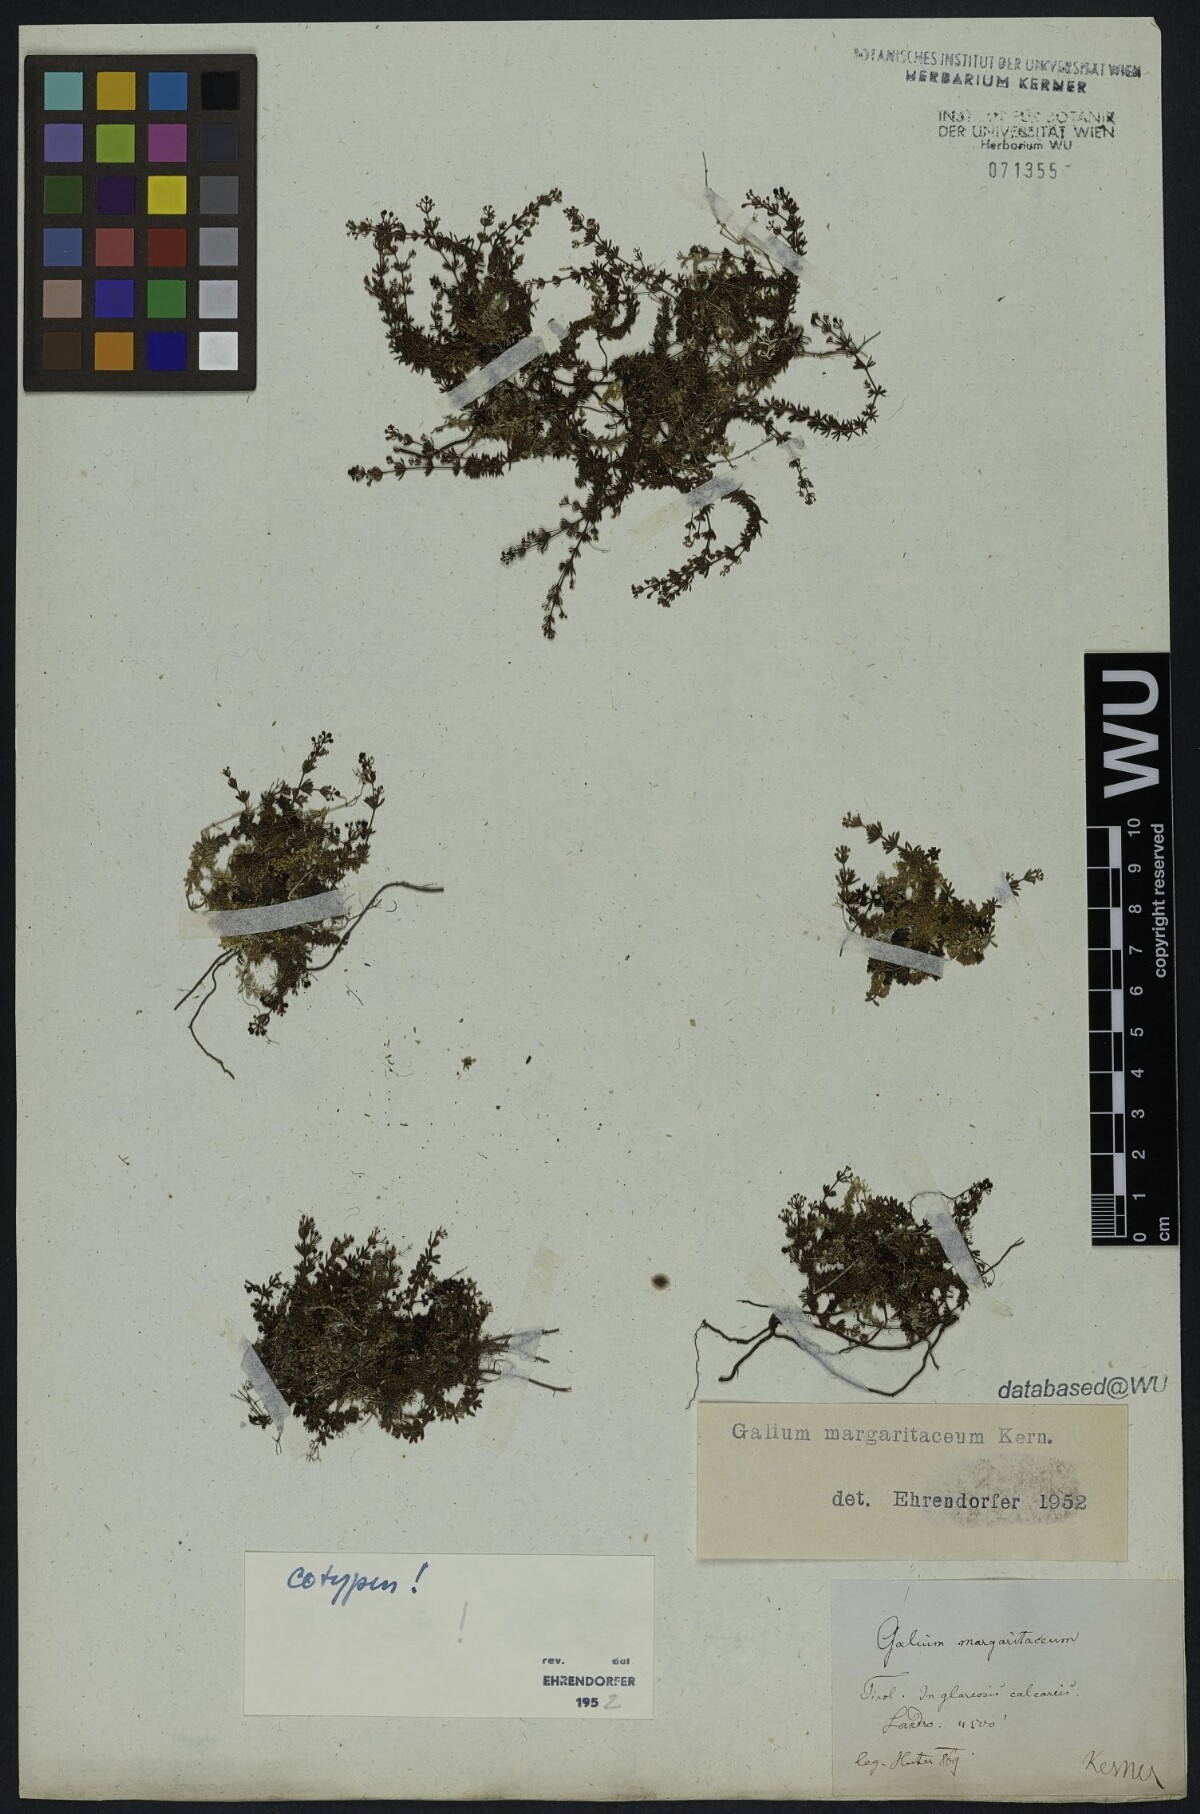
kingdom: Plantae
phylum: Tracheophyta
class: Magnoliopsida
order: Gentianales
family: Rubiaceae
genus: Galium
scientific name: Galium margaritaceum
